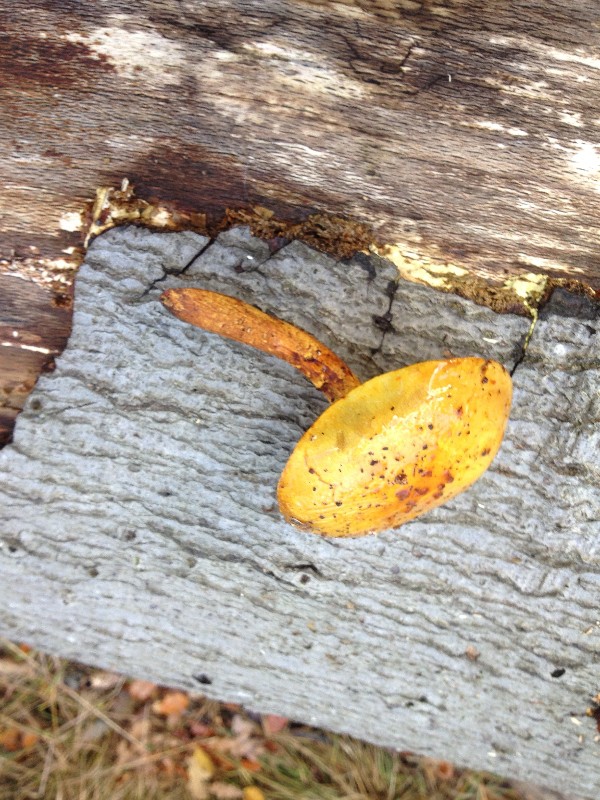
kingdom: Fungi
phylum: Basidiomycota
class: Agaricomycetes
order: Agaricales
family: Strophariaceae
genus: Pholiota
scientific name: Pholiota adiposa
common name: højtsiddende skælhat
